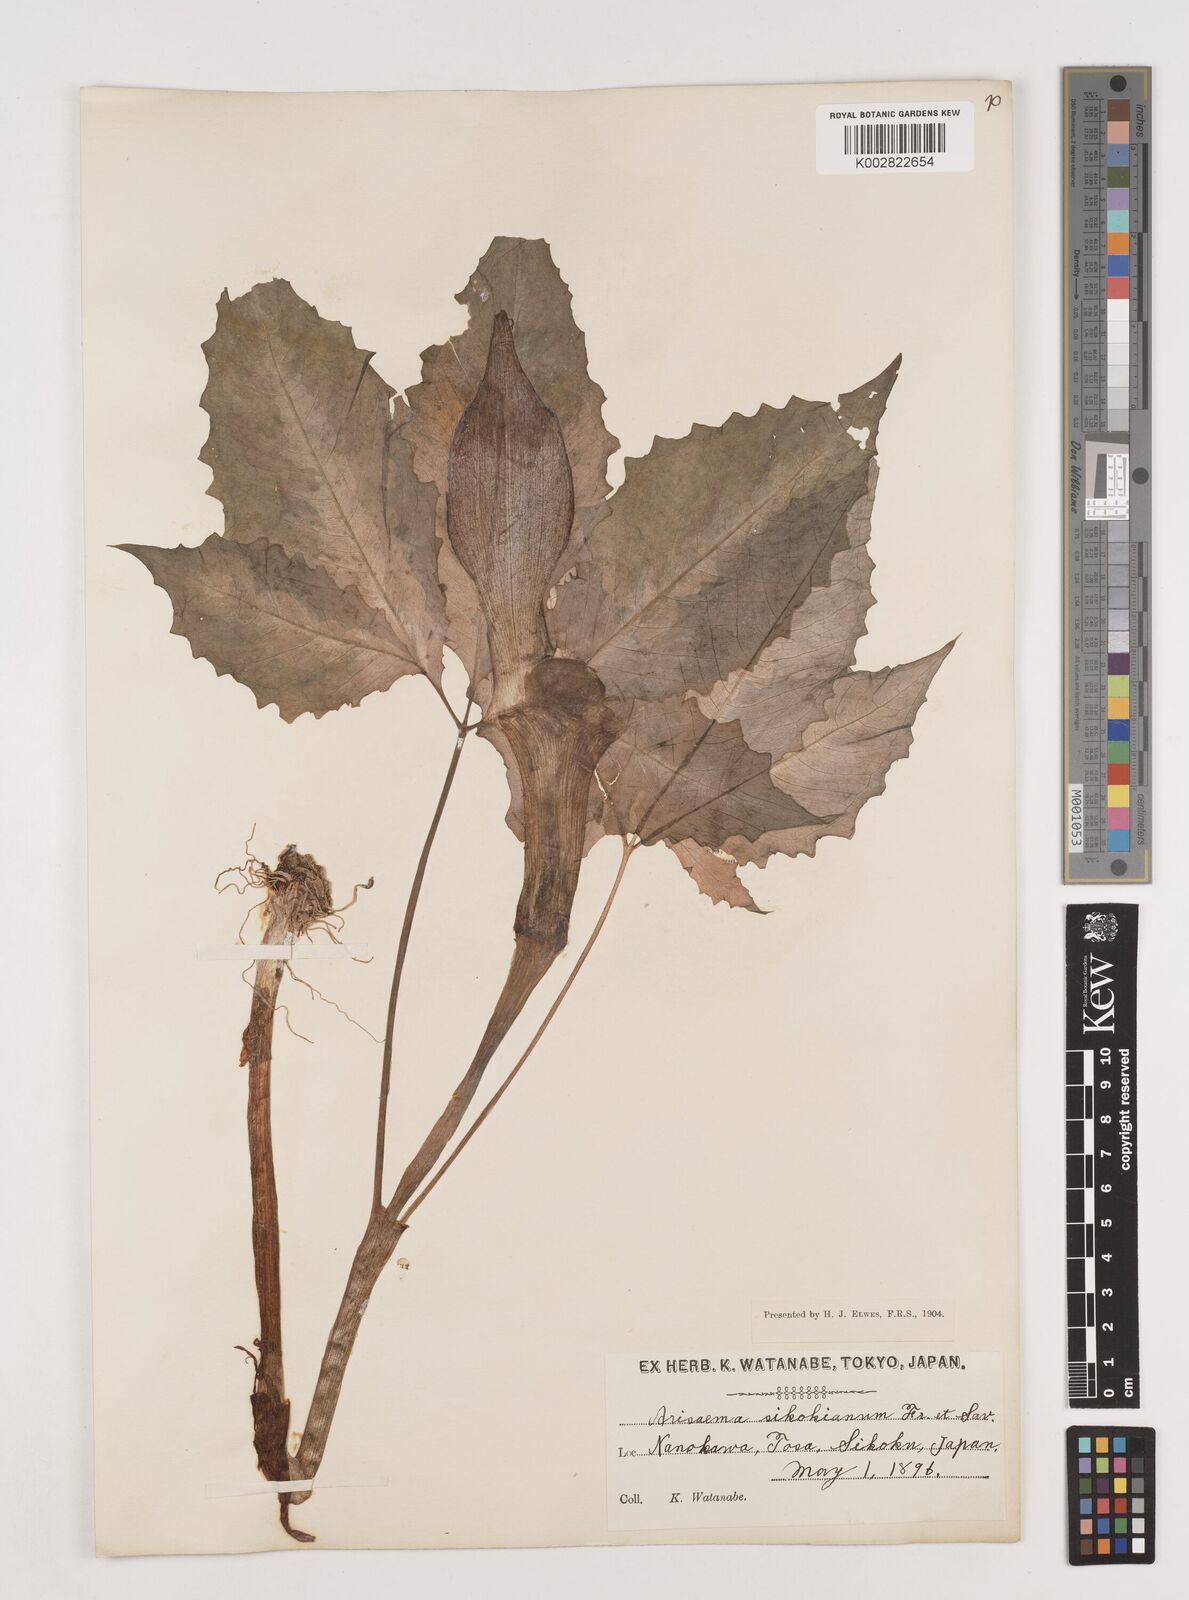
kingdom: Plantae
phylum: Tracheophyta
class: Liliopsida
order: Alismatales
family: Araceae
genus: Arisaema
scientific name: Arisaema sikokianum
